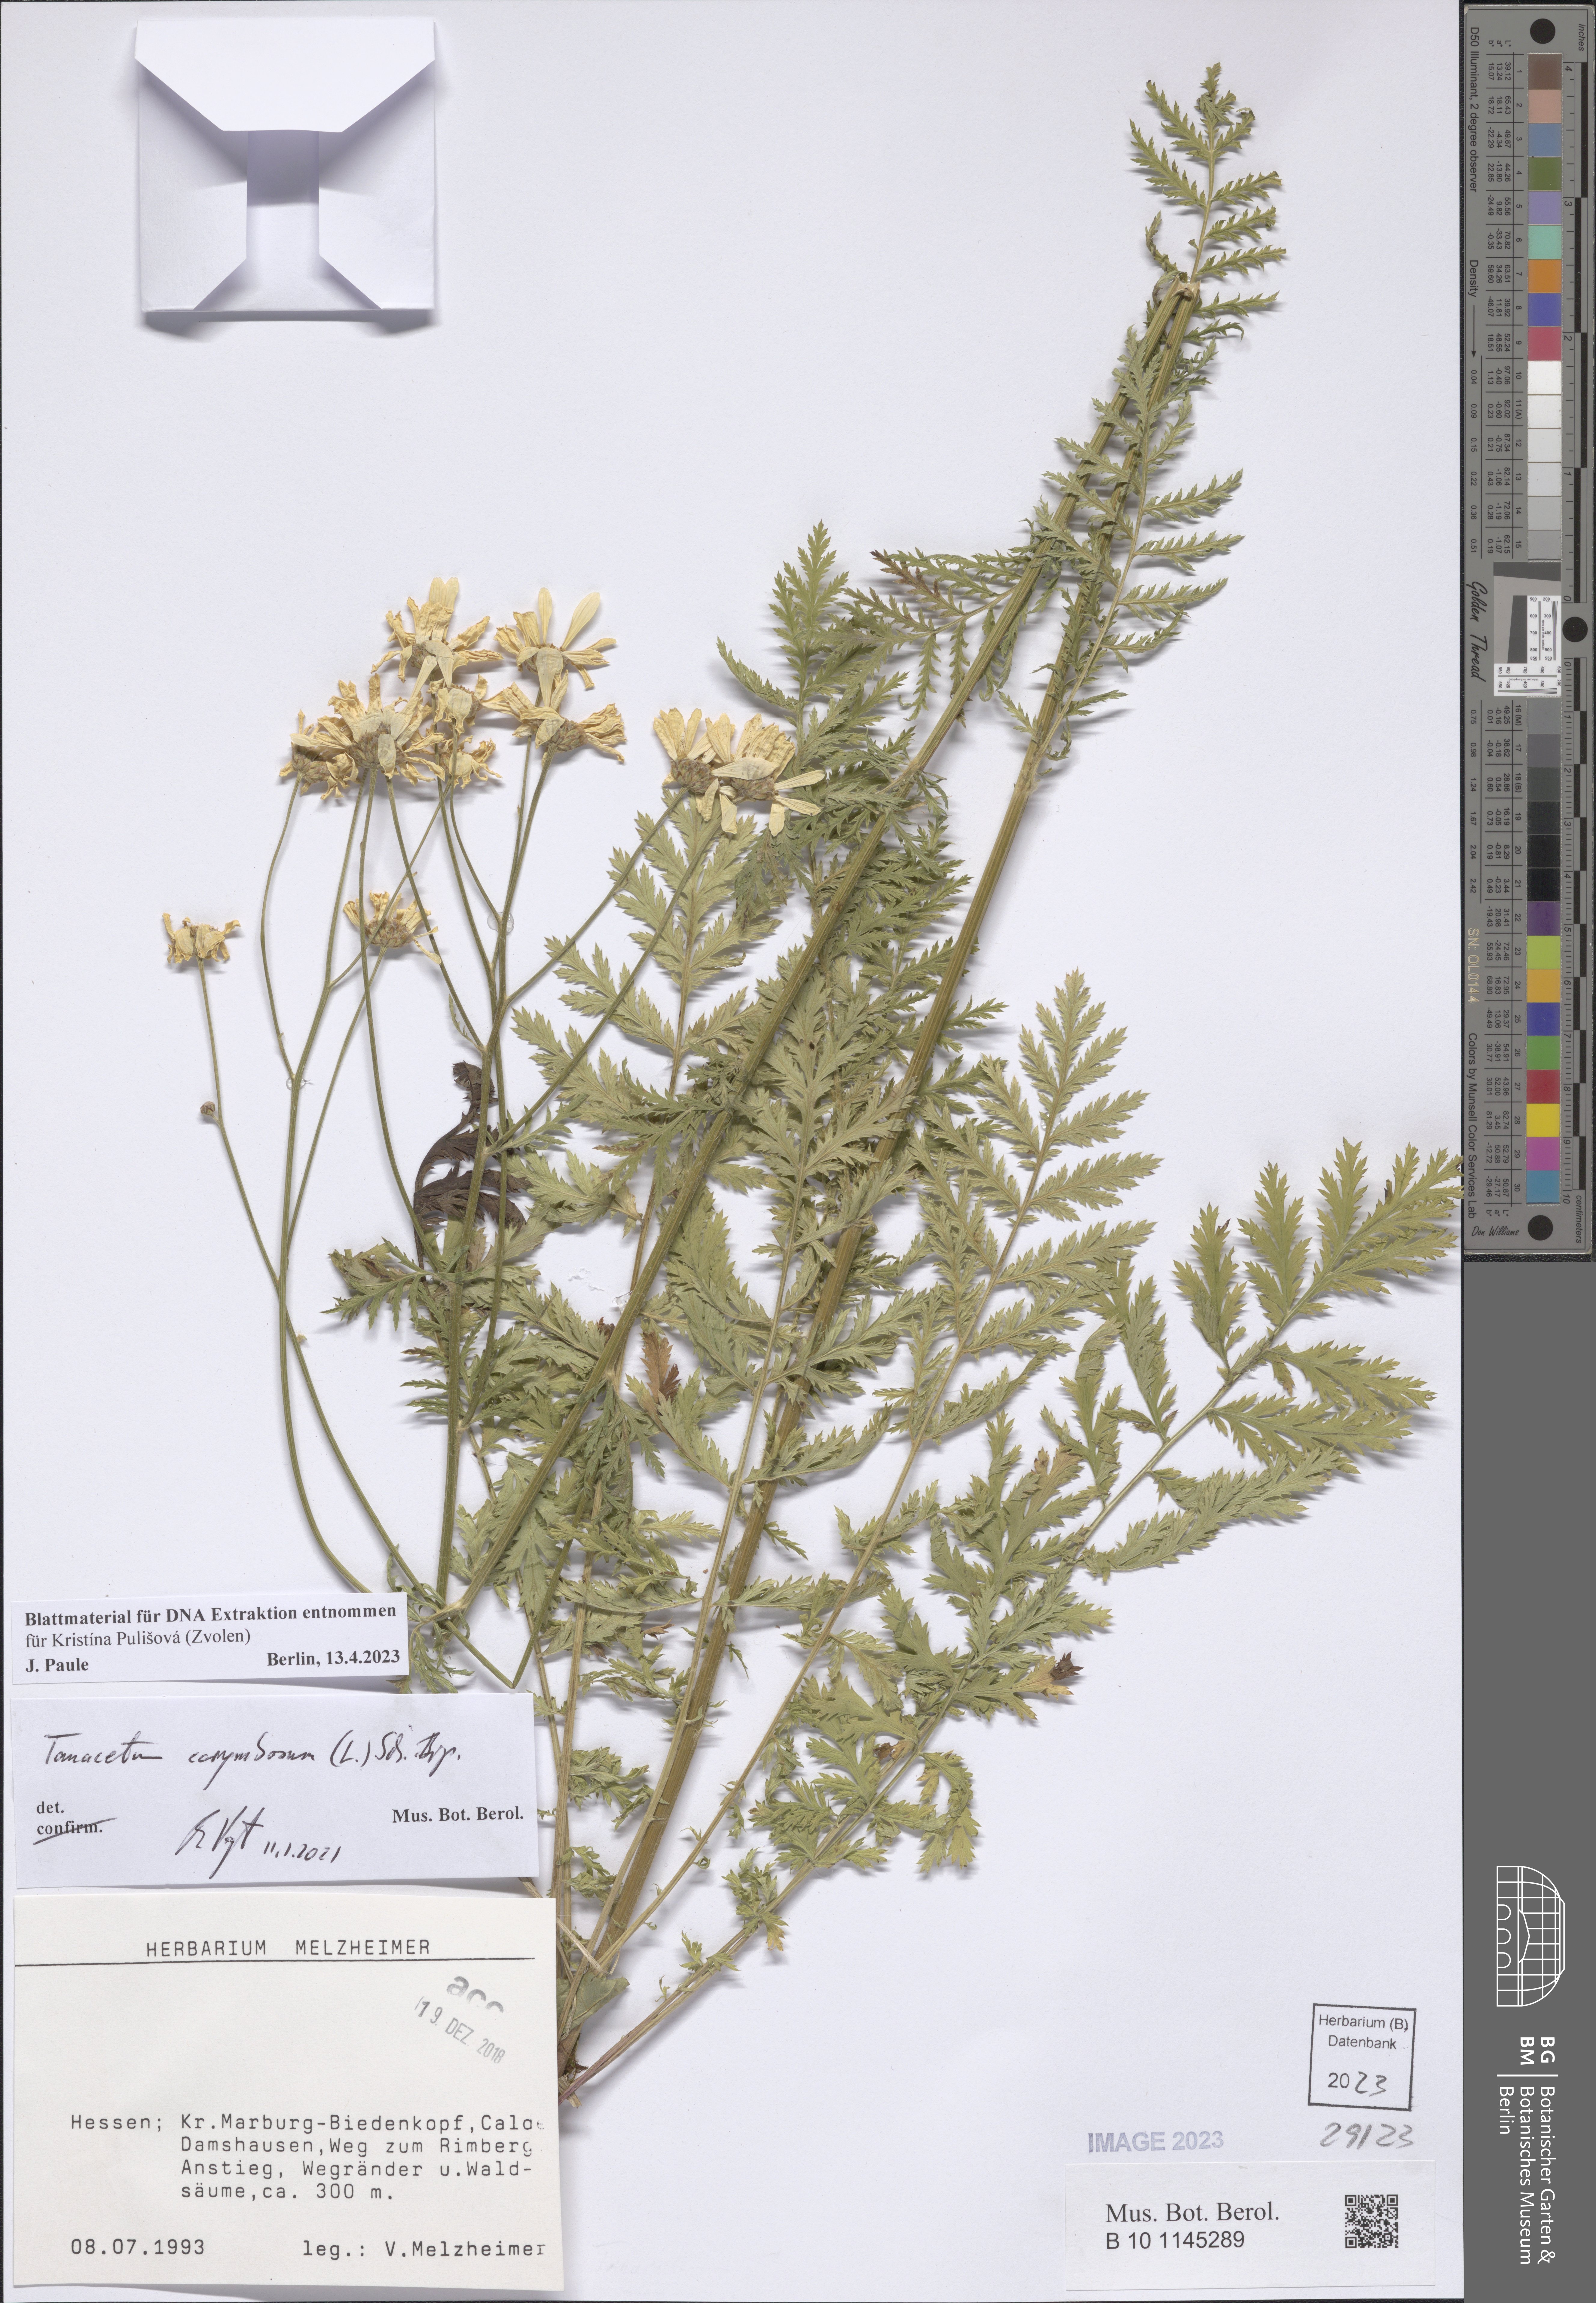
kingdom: Plantae
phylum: Tracheophyta
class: Magnoliopsida
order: Asterales
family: Asteraceae
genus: Tanacetum
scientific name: Tanacetum corymbosum
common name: Scentless feverfew
